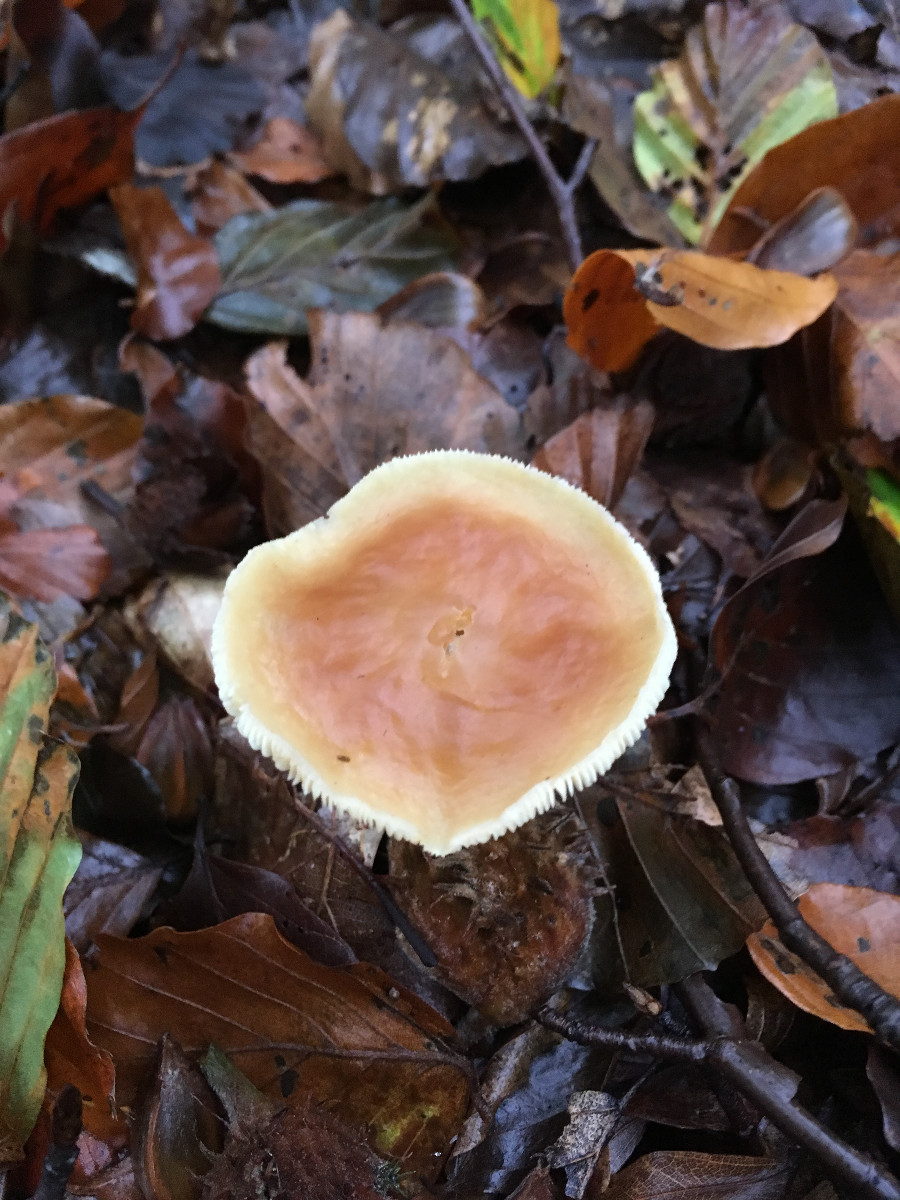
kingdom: Fungi
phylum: Basidiomycota
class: Agaricomycetes
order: Agaricales
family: Omphalotaceae
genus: Gymnopus
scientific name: Gymnopus dryophilus
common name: løv-fladhat
